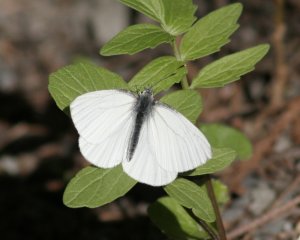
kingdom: Animalia
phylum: Arthropoda
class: Insecta
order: Lepidoptera
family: Pieridae
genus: Pieris
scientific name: Pieris oleracea
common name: Mustard White
